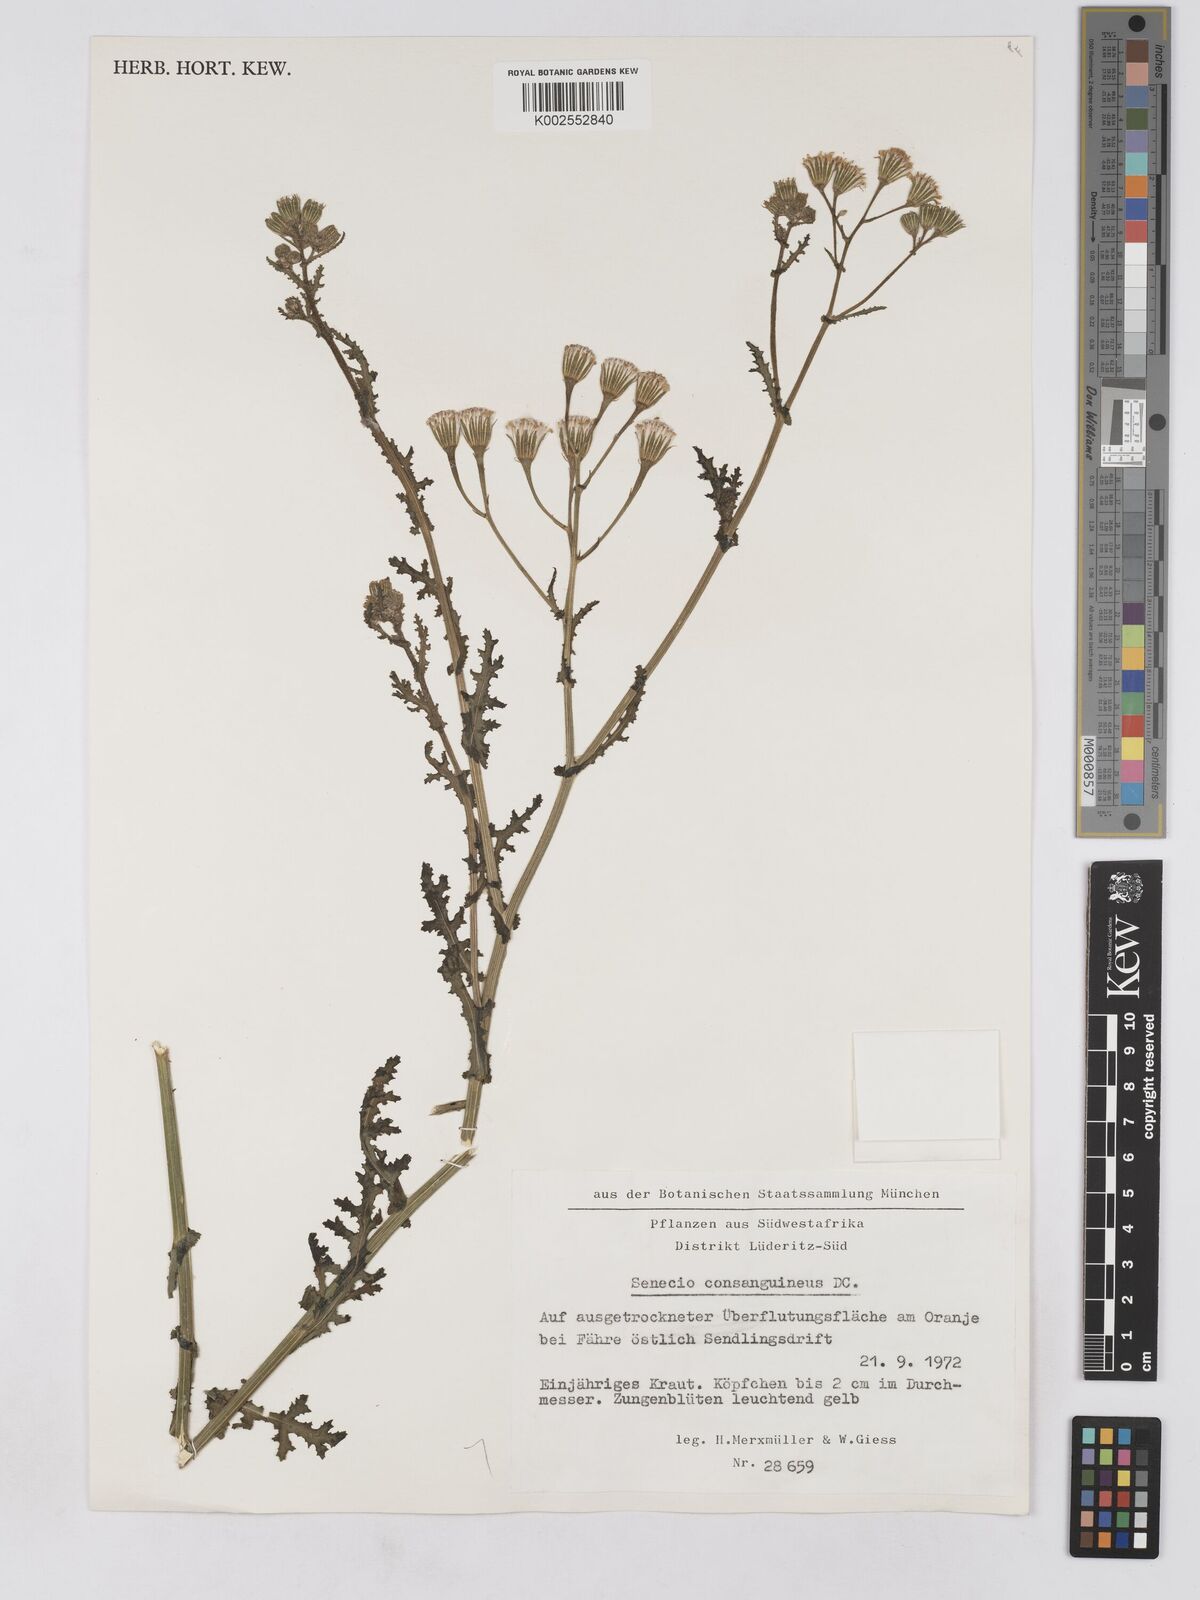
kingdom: Plantae
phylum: Tracheophyta
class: Magnoliopsida
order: Asterales
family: Asteraceae
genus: Senecio
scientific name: Senecio consanguineus
